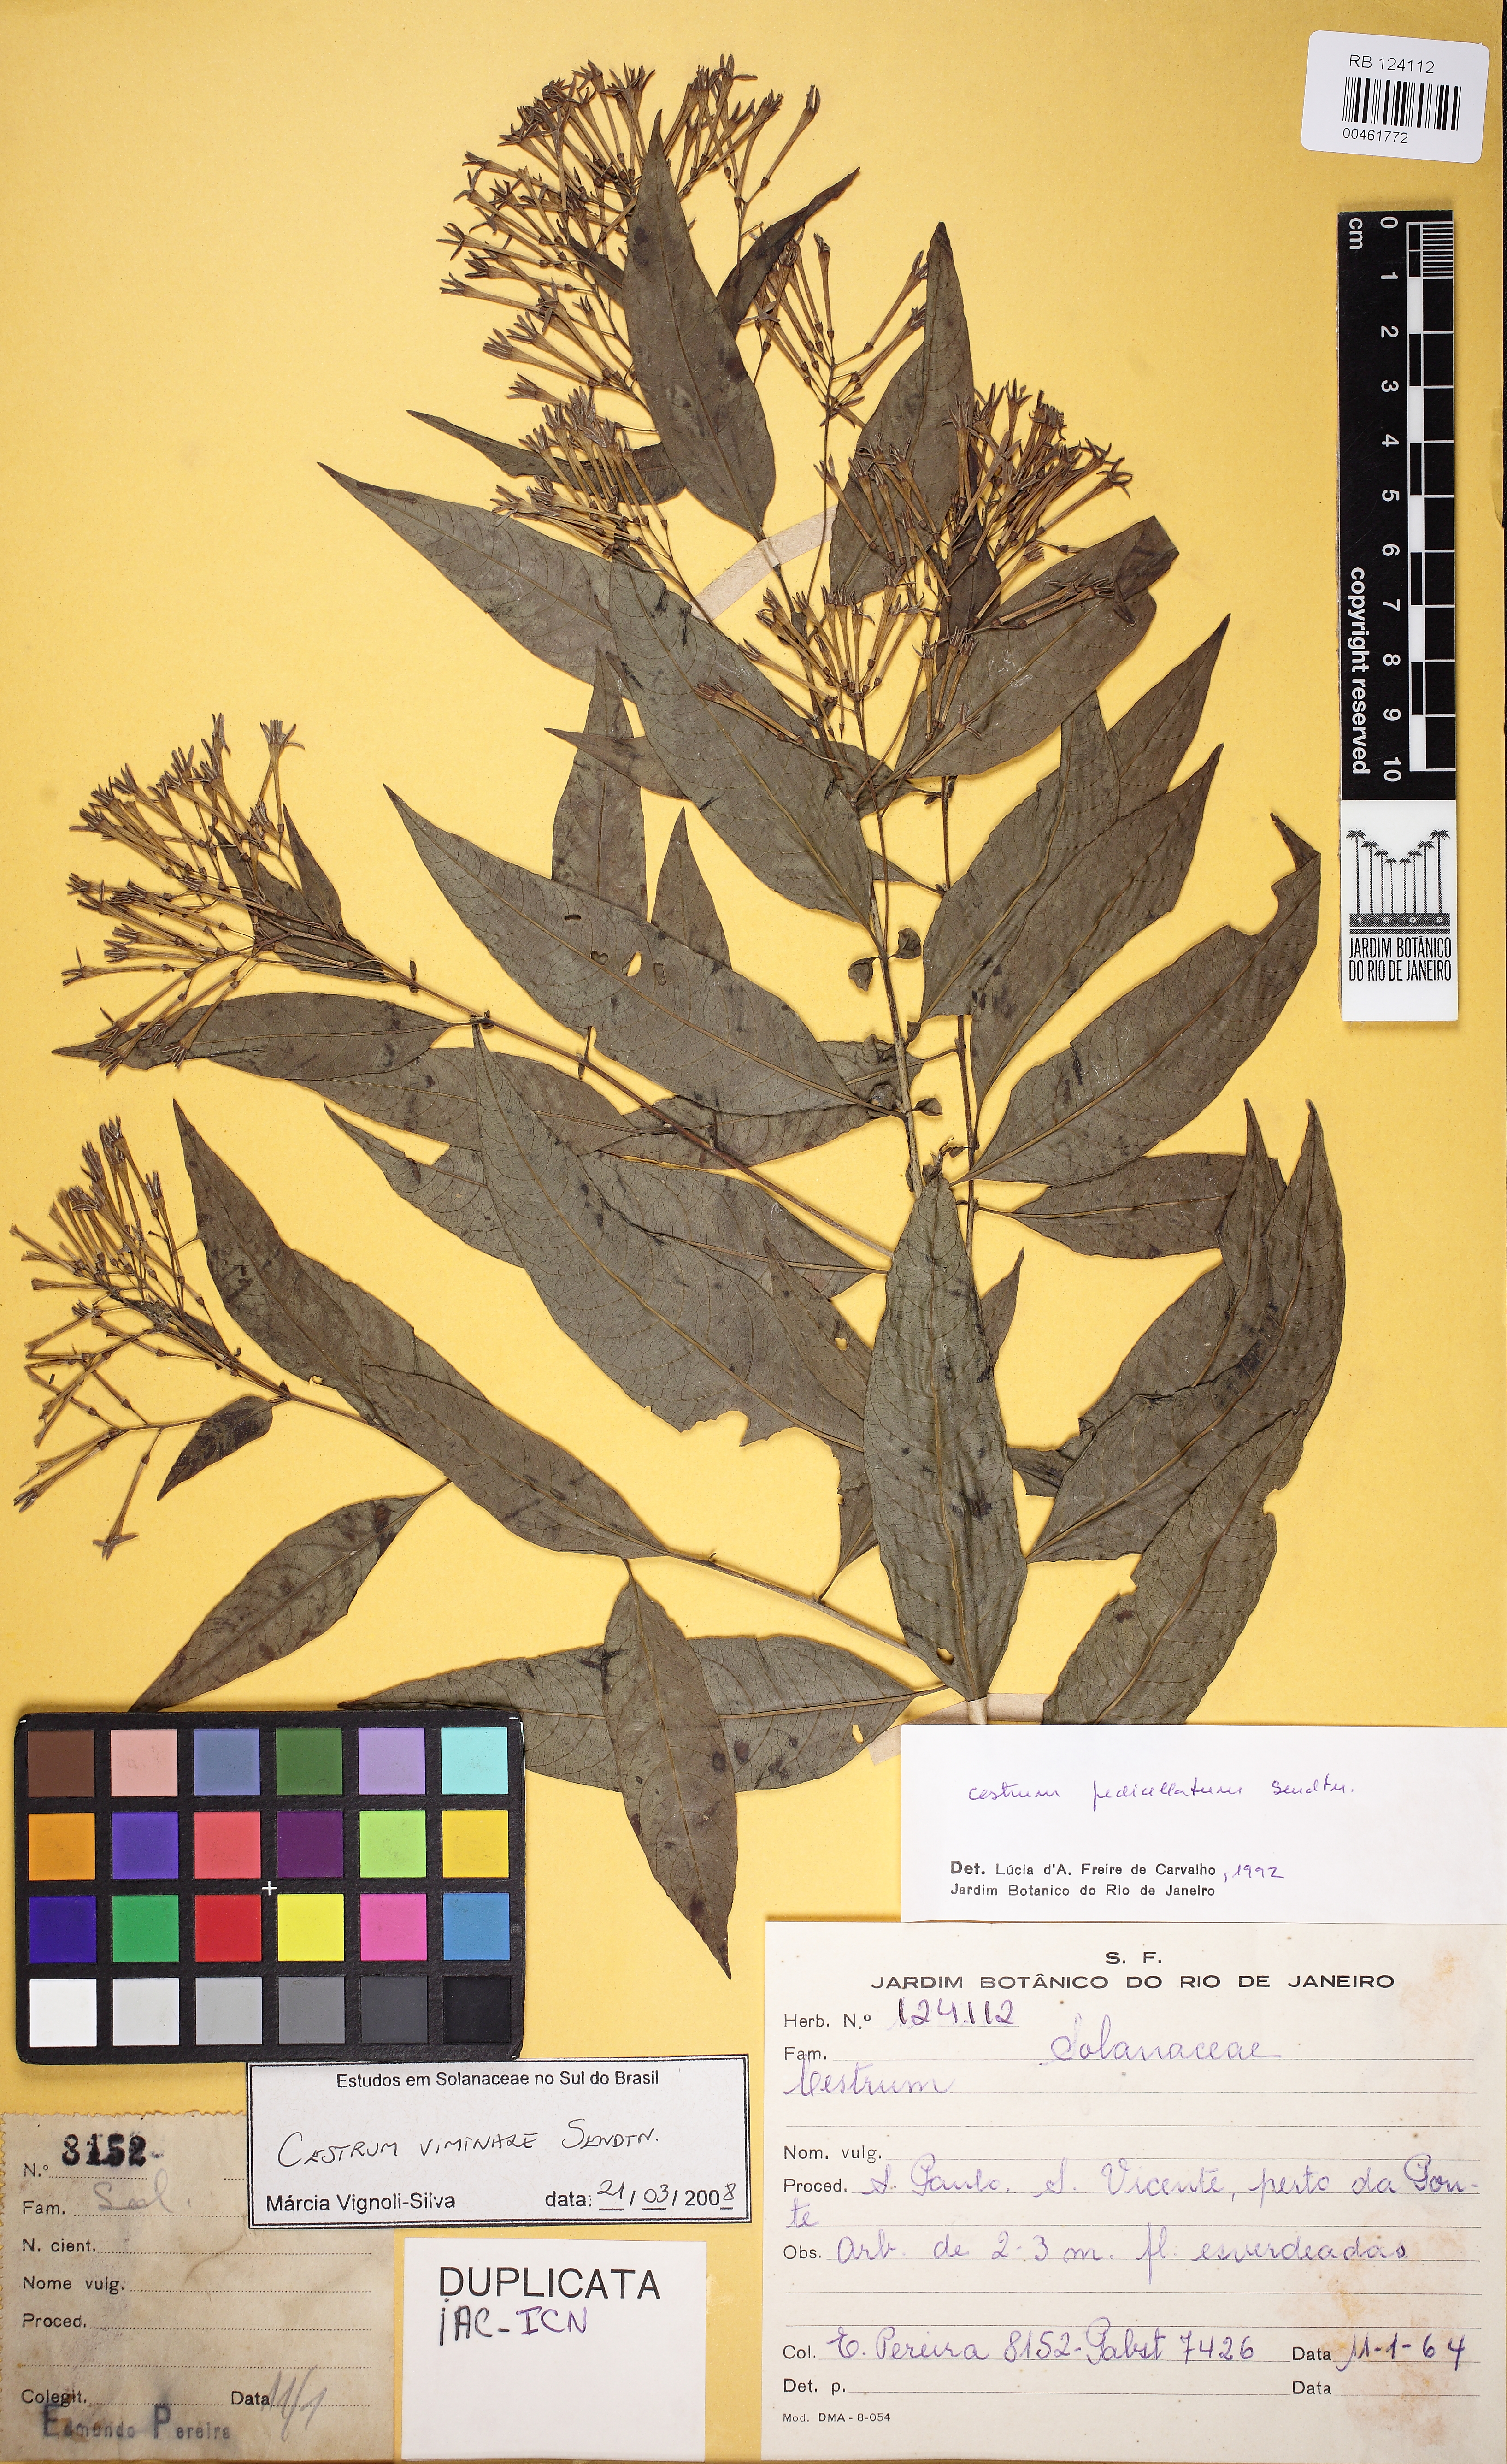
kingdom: Plantae
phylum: Tracheophyta
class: Magnoliopsida
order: Solanales
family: Solanaceae
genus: Cestrum
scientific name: Cestrum montanum
